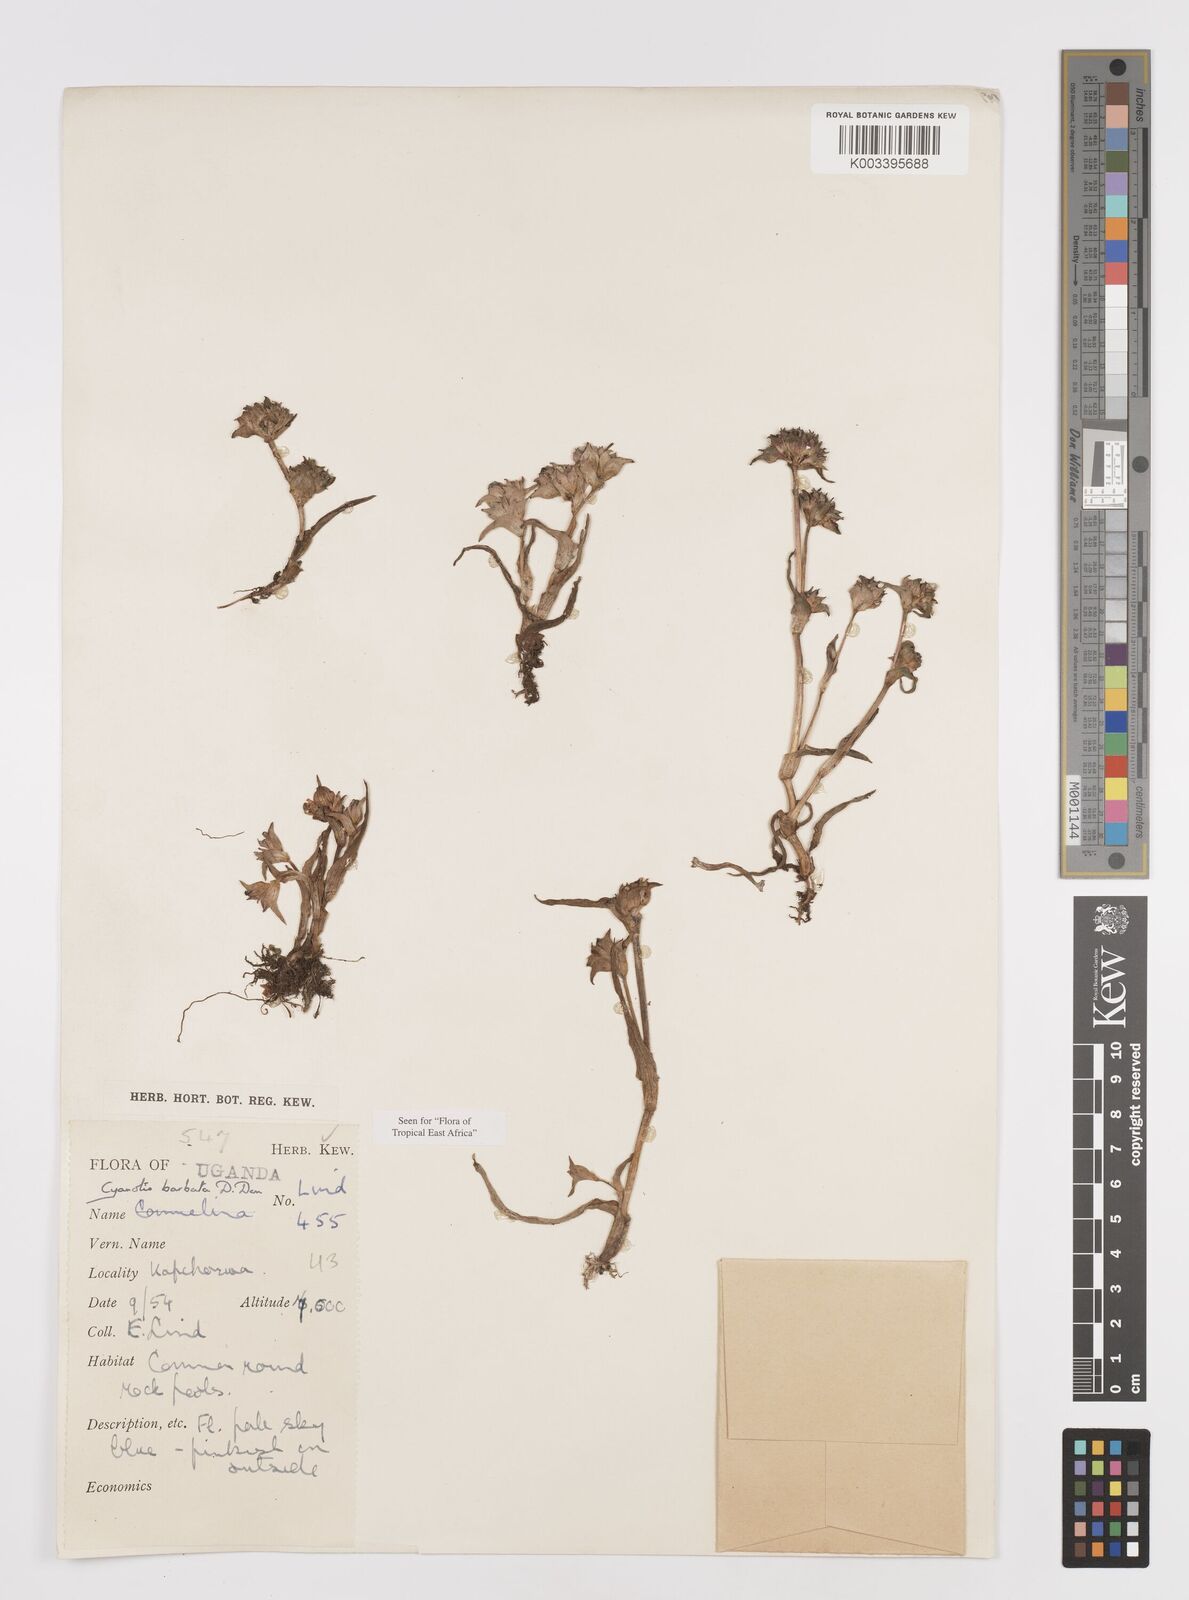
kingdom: Plantae
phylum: Tracheophyta
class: Liliopsida
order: Commelinales
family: Commelinaceae
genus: Cyanotis
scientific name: Cyanotis vaga
